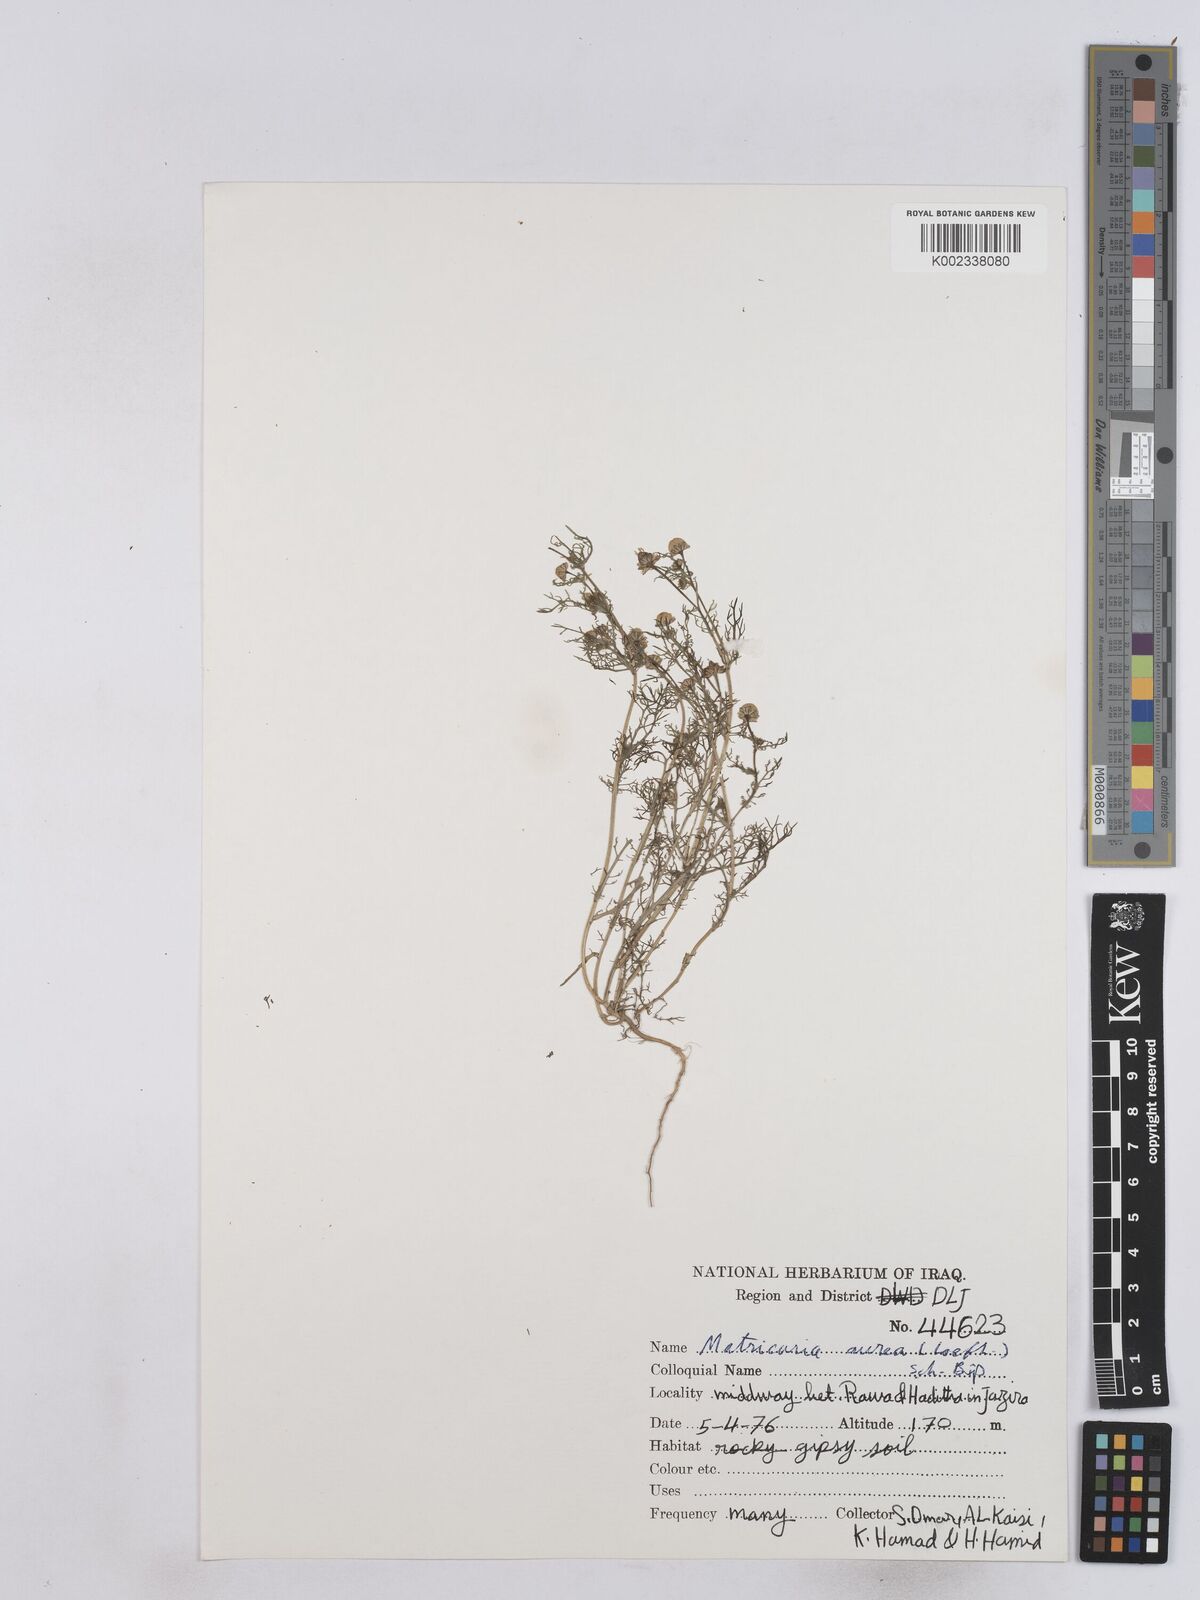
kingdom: Plantae
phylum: Tracheophyta
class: Magnoliopsida
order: Asterales
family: Asteraceae
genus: Matricaria
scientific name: Matricaria aurea
